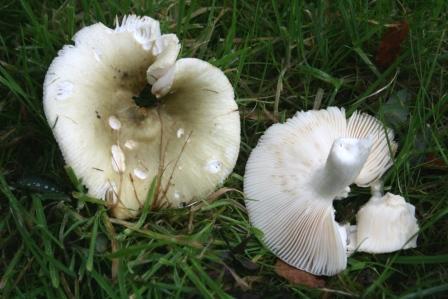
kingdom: Fungi
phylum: Basidiomycota
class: Agaricomycetes
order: Russulales
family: Russulaceae
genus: Russula
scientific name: Russula aeruginea
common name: græsgrøn skørhat
